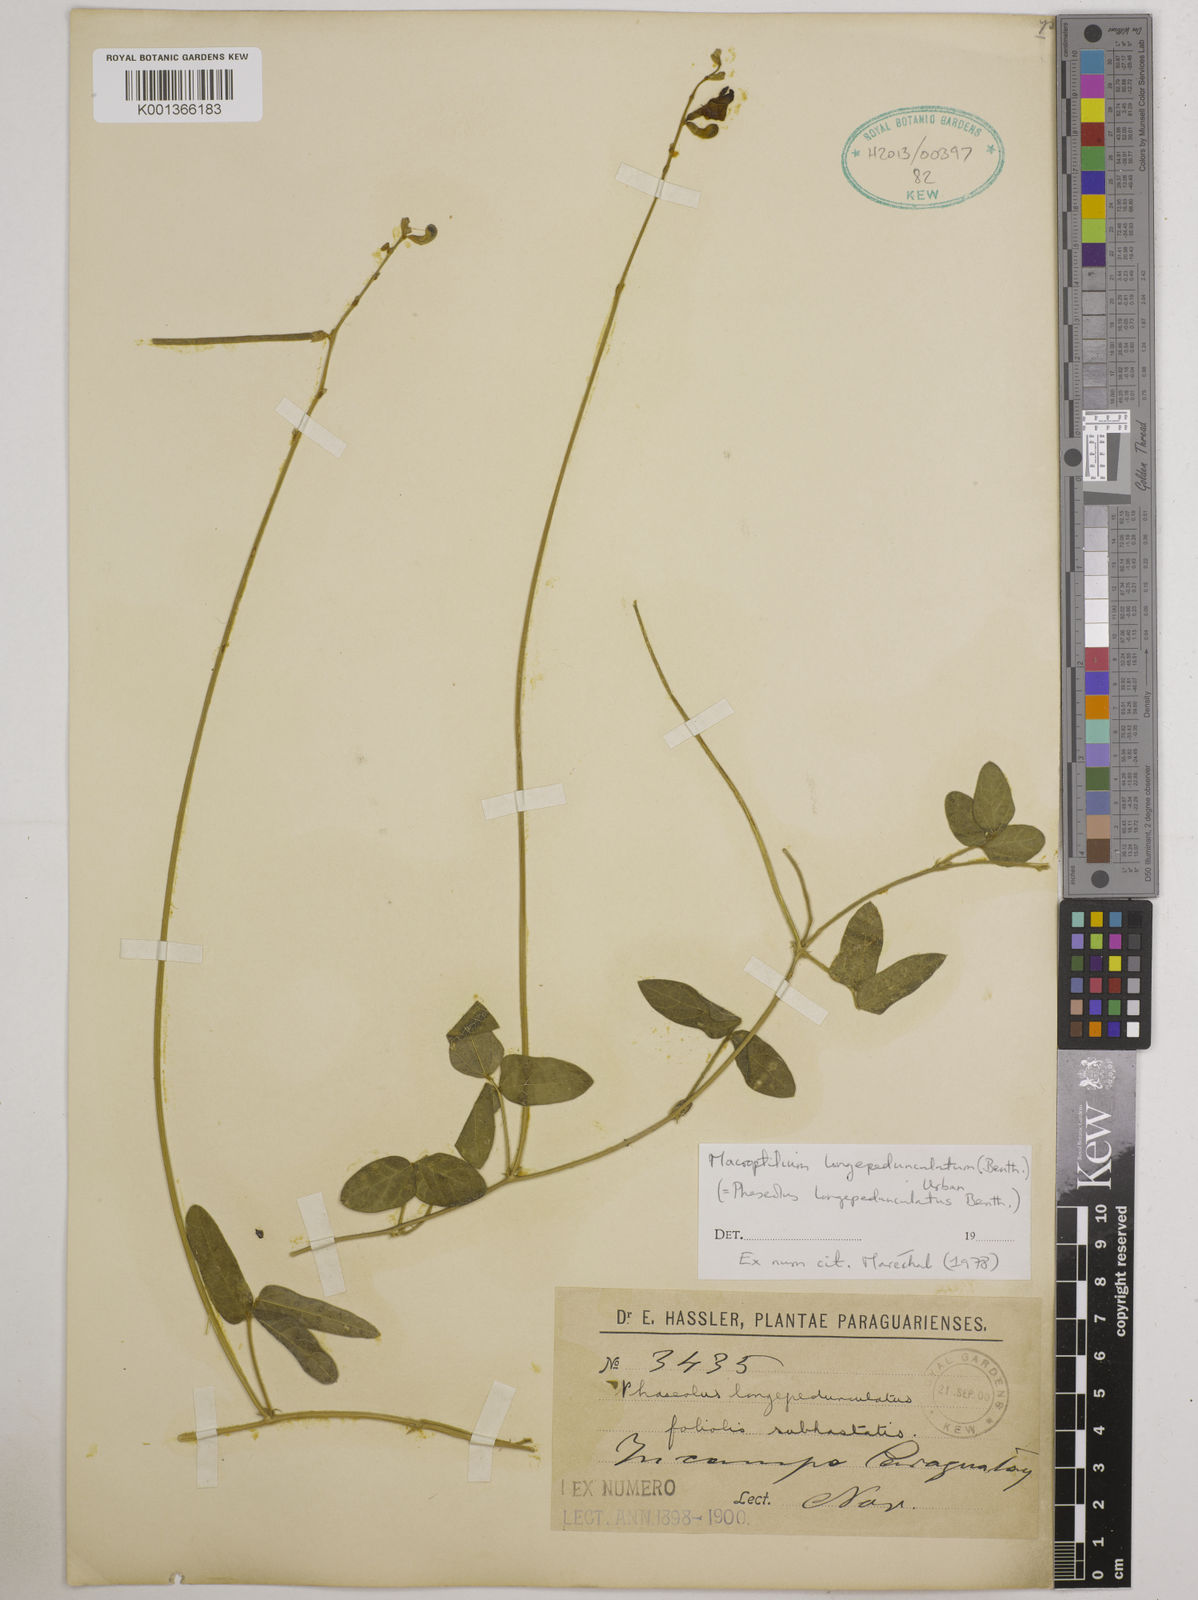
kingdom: Plantae
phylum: Tracheophyta
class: Magnoliopsida
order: Fabales
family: Fabaceae
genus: Macroptilium
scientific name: Macroptilium longepedunculatum
